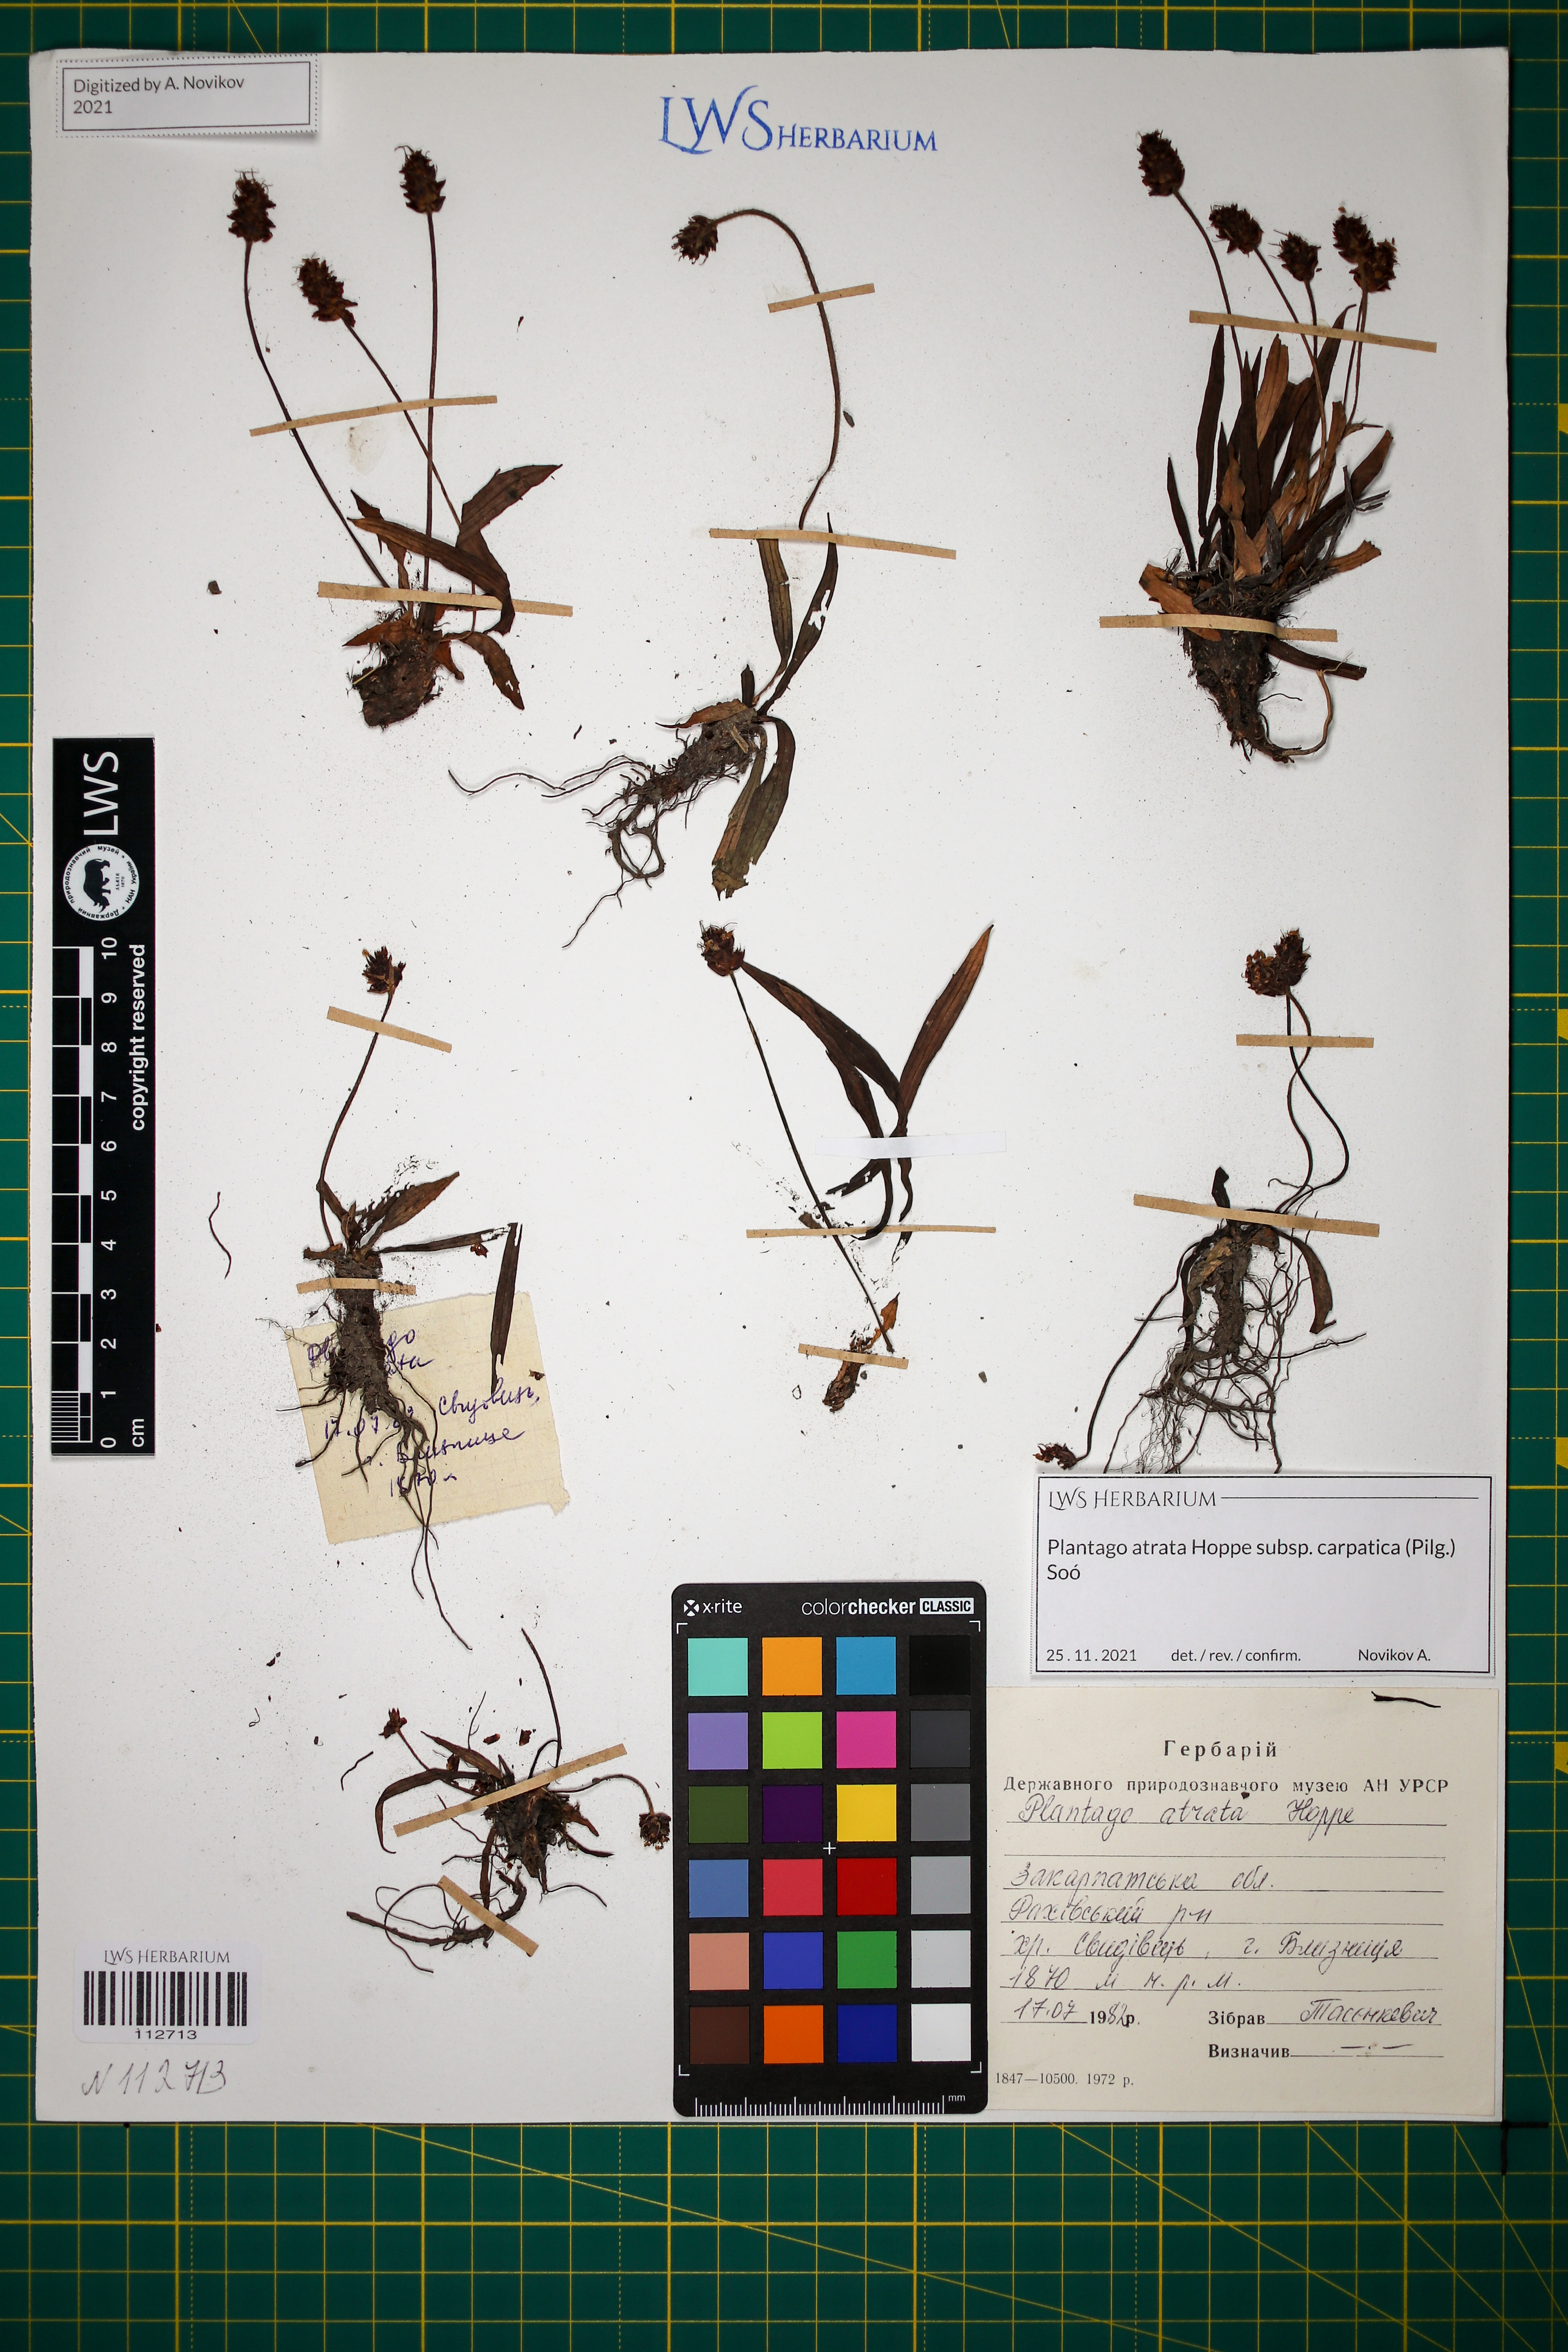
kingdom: Plantae
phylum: Tracheophyta
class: Magnoliopsida
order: Lamiales
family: Plantaginaceae
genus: Plantago
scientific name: Plantago atrata
